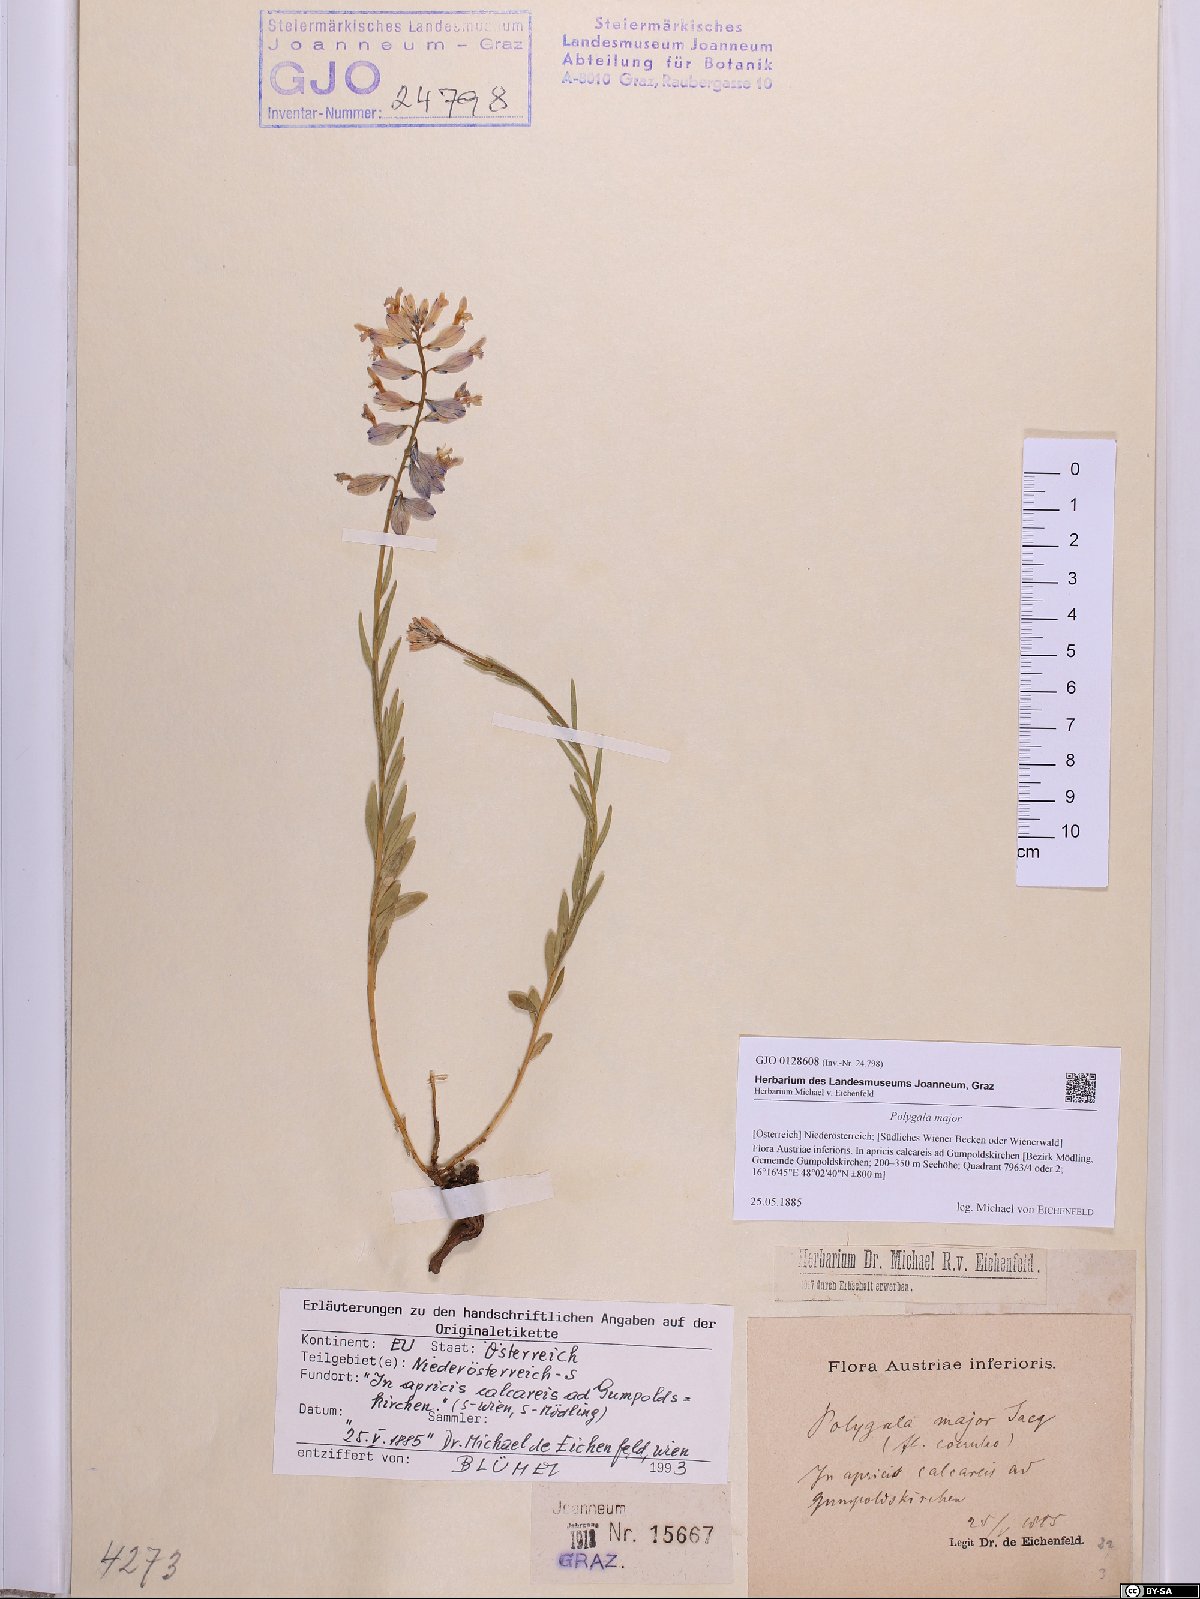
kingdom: Plantae
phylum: Tracheophyta
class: Magnoliopsida
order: Fabales
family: Polygalaceae
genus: Polygala
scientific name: Polygala major
